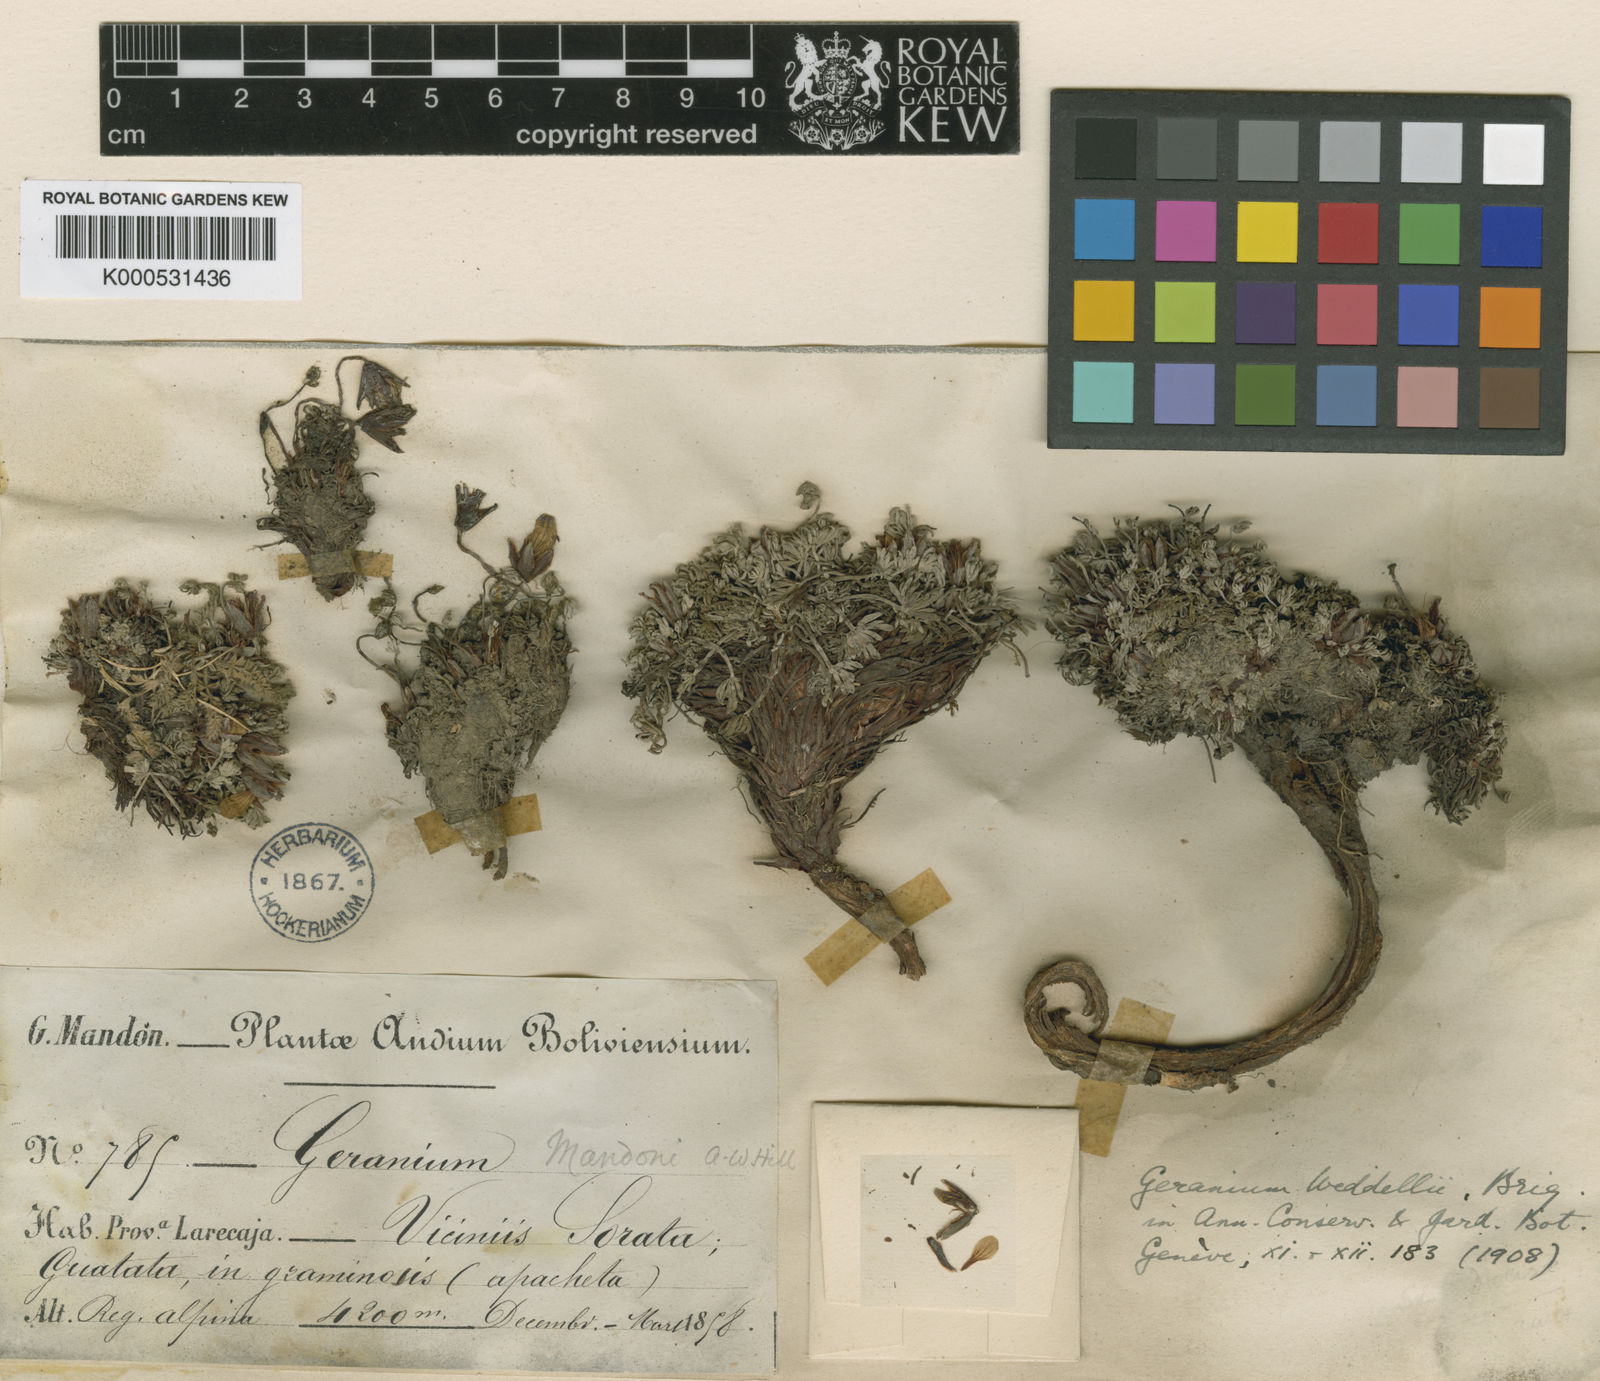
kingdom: Plantae
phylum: Tracheophyta
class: Magnoliopsida
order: Geraniales
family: Geraniaceae
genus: Geranium
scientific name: Geranium
